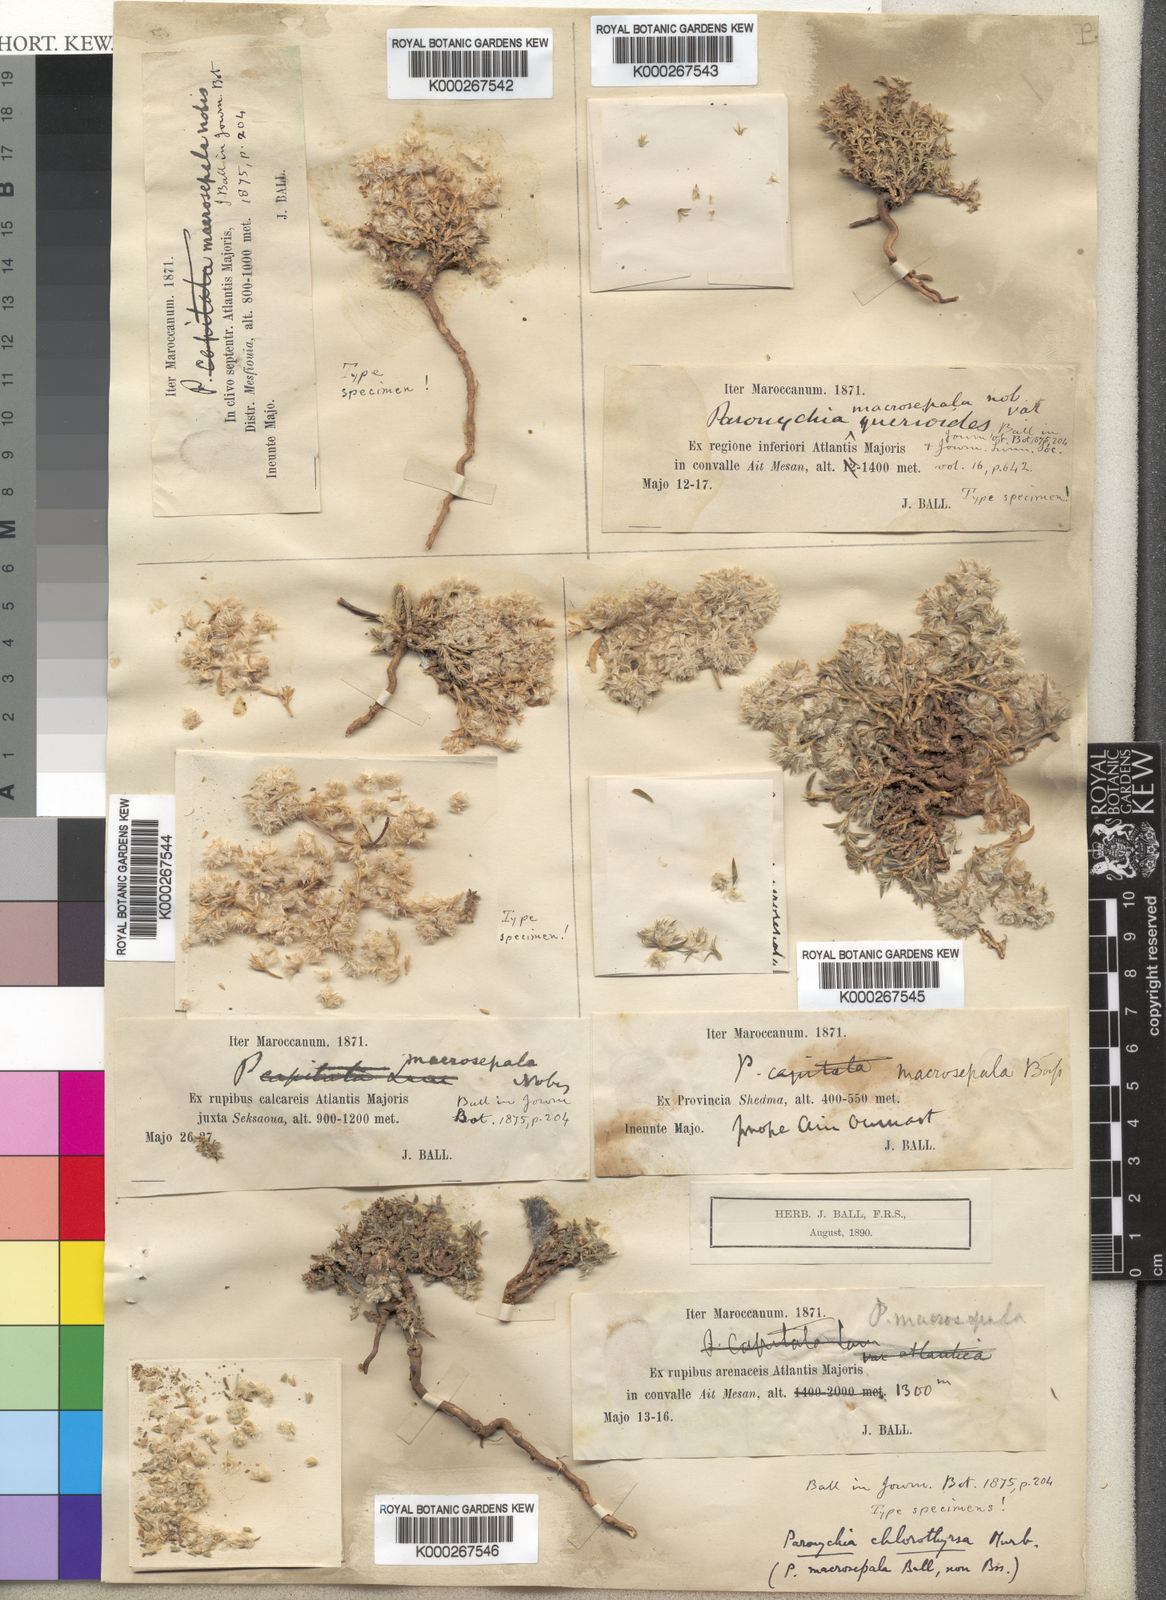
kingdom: Plantae
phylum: Tracheophyta
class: Magnoliopsida
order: Caryophyllales
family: Caryophyllaceae
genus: Paronychia
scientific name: Paronychia chlorothyrsa
